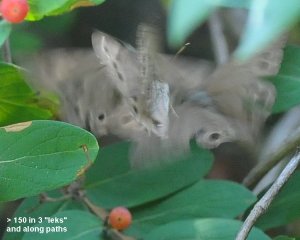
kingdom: Animalia
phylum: Arthropoda
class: Insecta
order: Lepidoptera
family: Nymphalidae
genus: Lethe
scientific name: Lethe anthedon
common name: Northern Pearly-Eye
